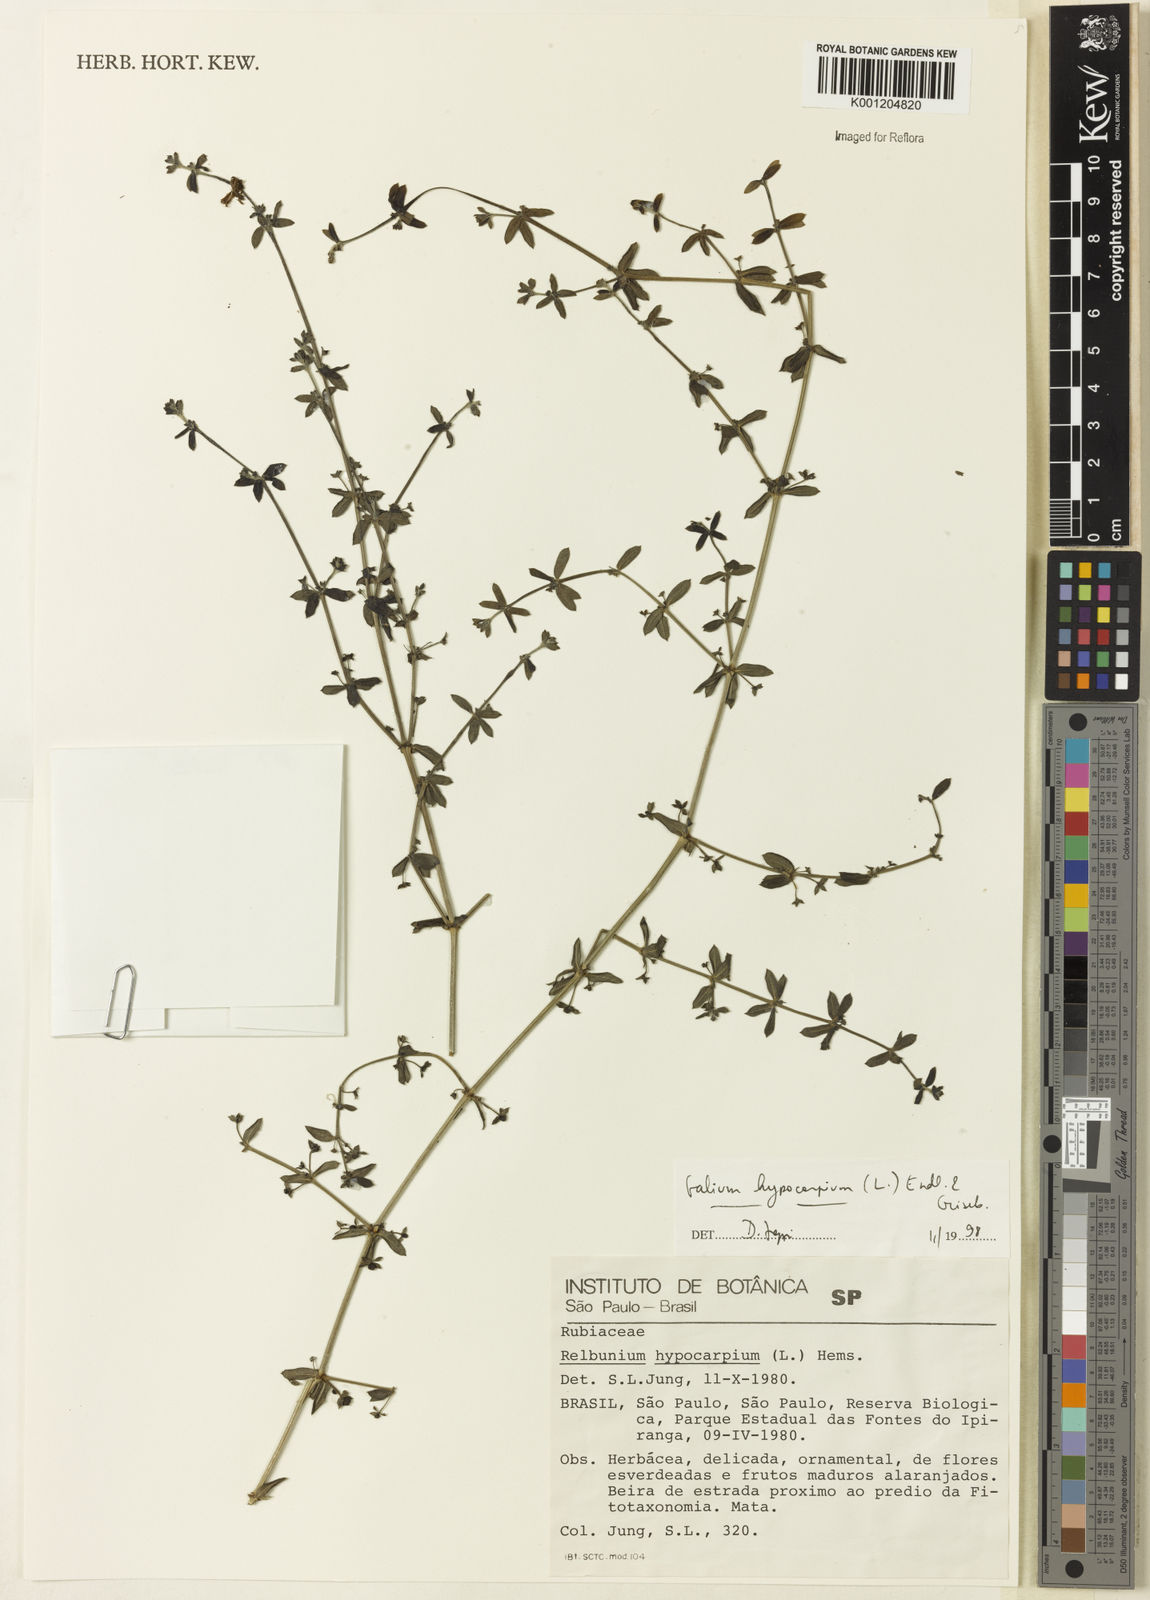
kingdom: Plantae
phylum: Tracheophyta
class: Magnoliopsida
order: Gentianales
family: Rubiaceae
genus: Galium
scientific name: Galium hypocarpium
